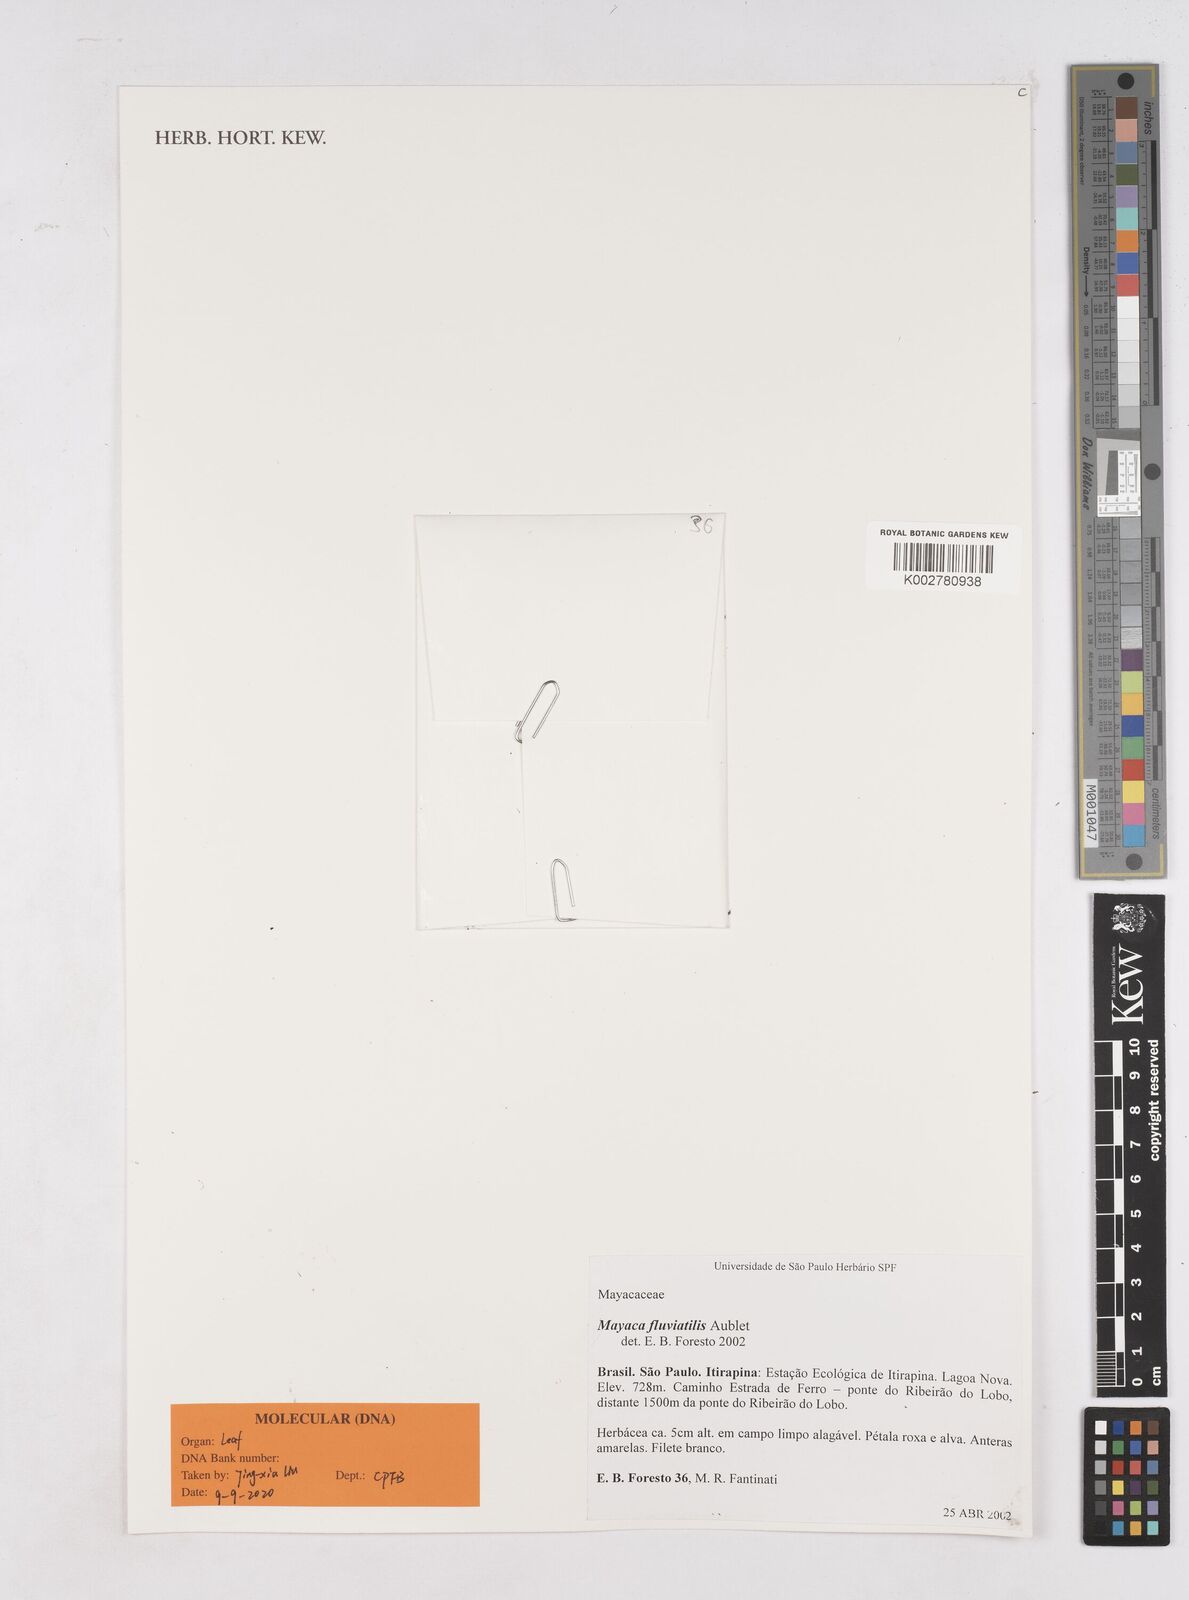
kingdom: Plantae
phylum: Tracheophyta
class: Liliopsida
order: Poales
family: Mayacaceae
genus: Mayaca
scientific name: Mayaca fluviatilis
